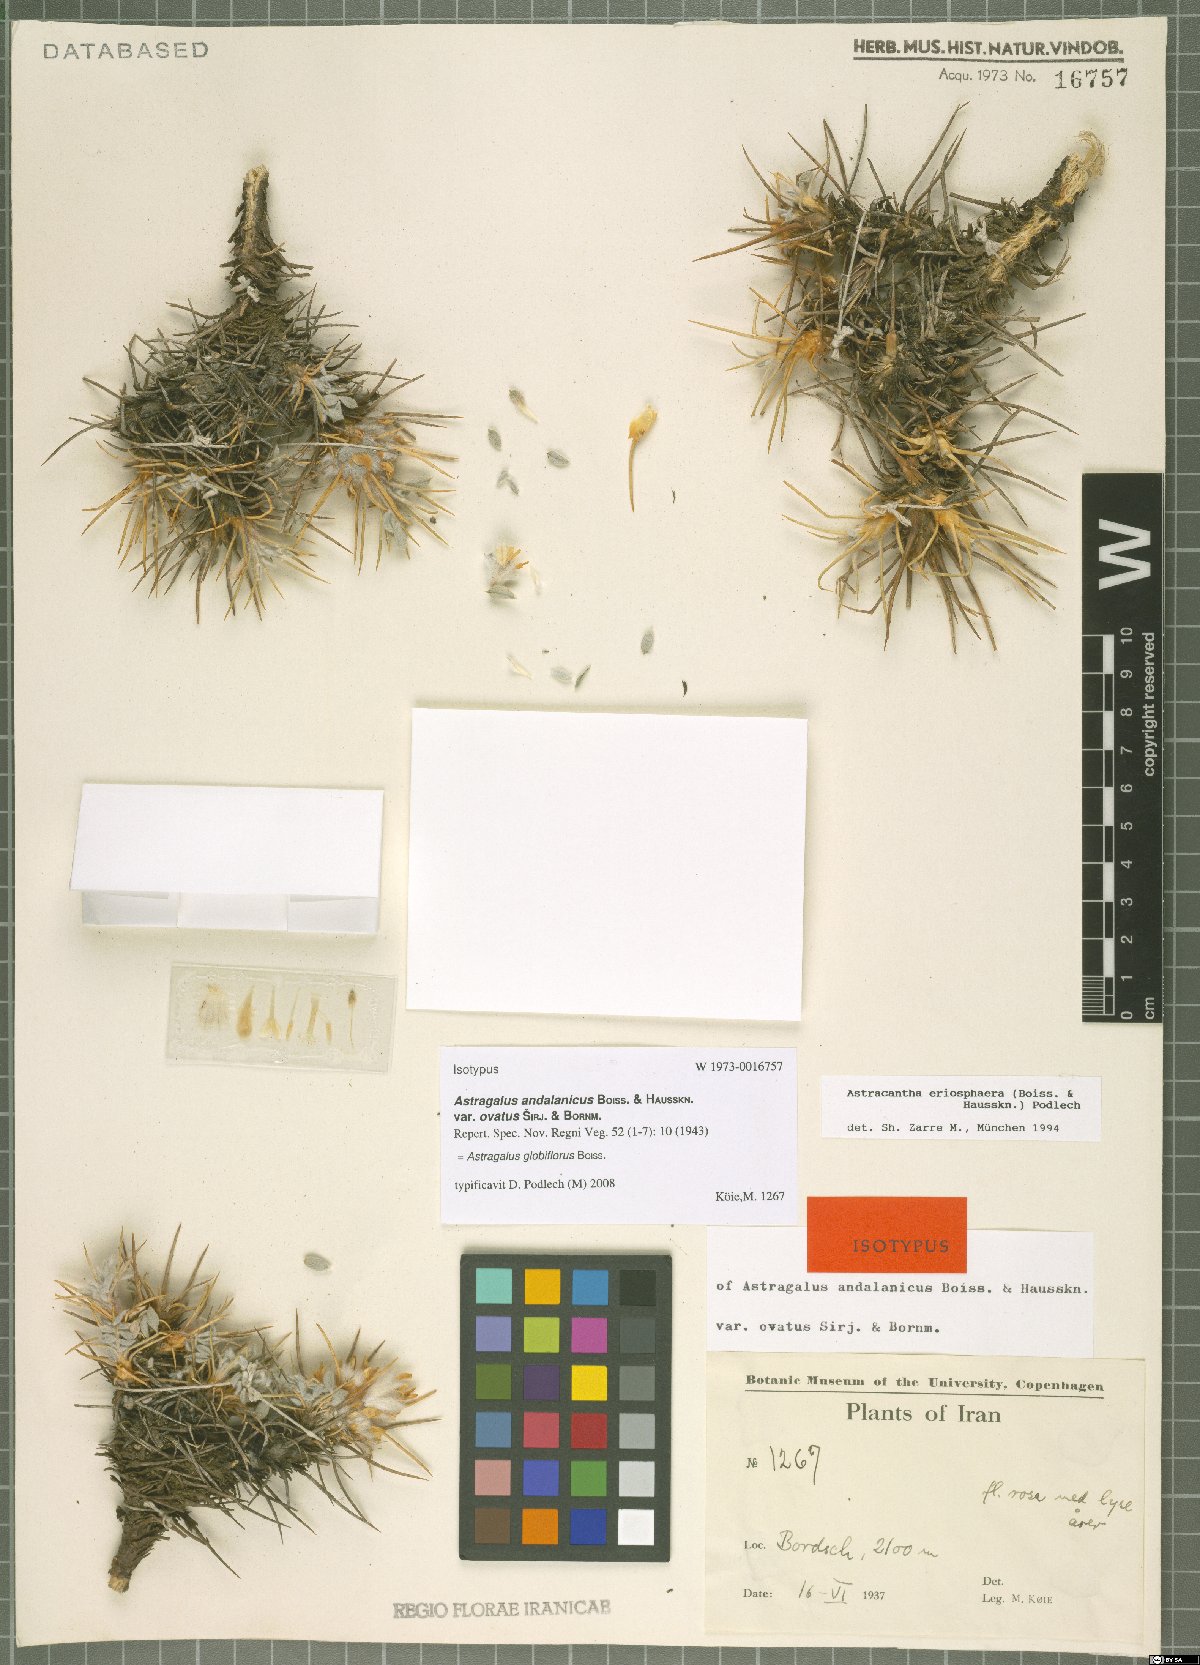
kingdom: Plantae
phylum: Tracheophyta
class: Magnoliopsida
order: Fabales
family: Fabaceae
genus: Astragalus
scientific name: Astragalus globiflorus
